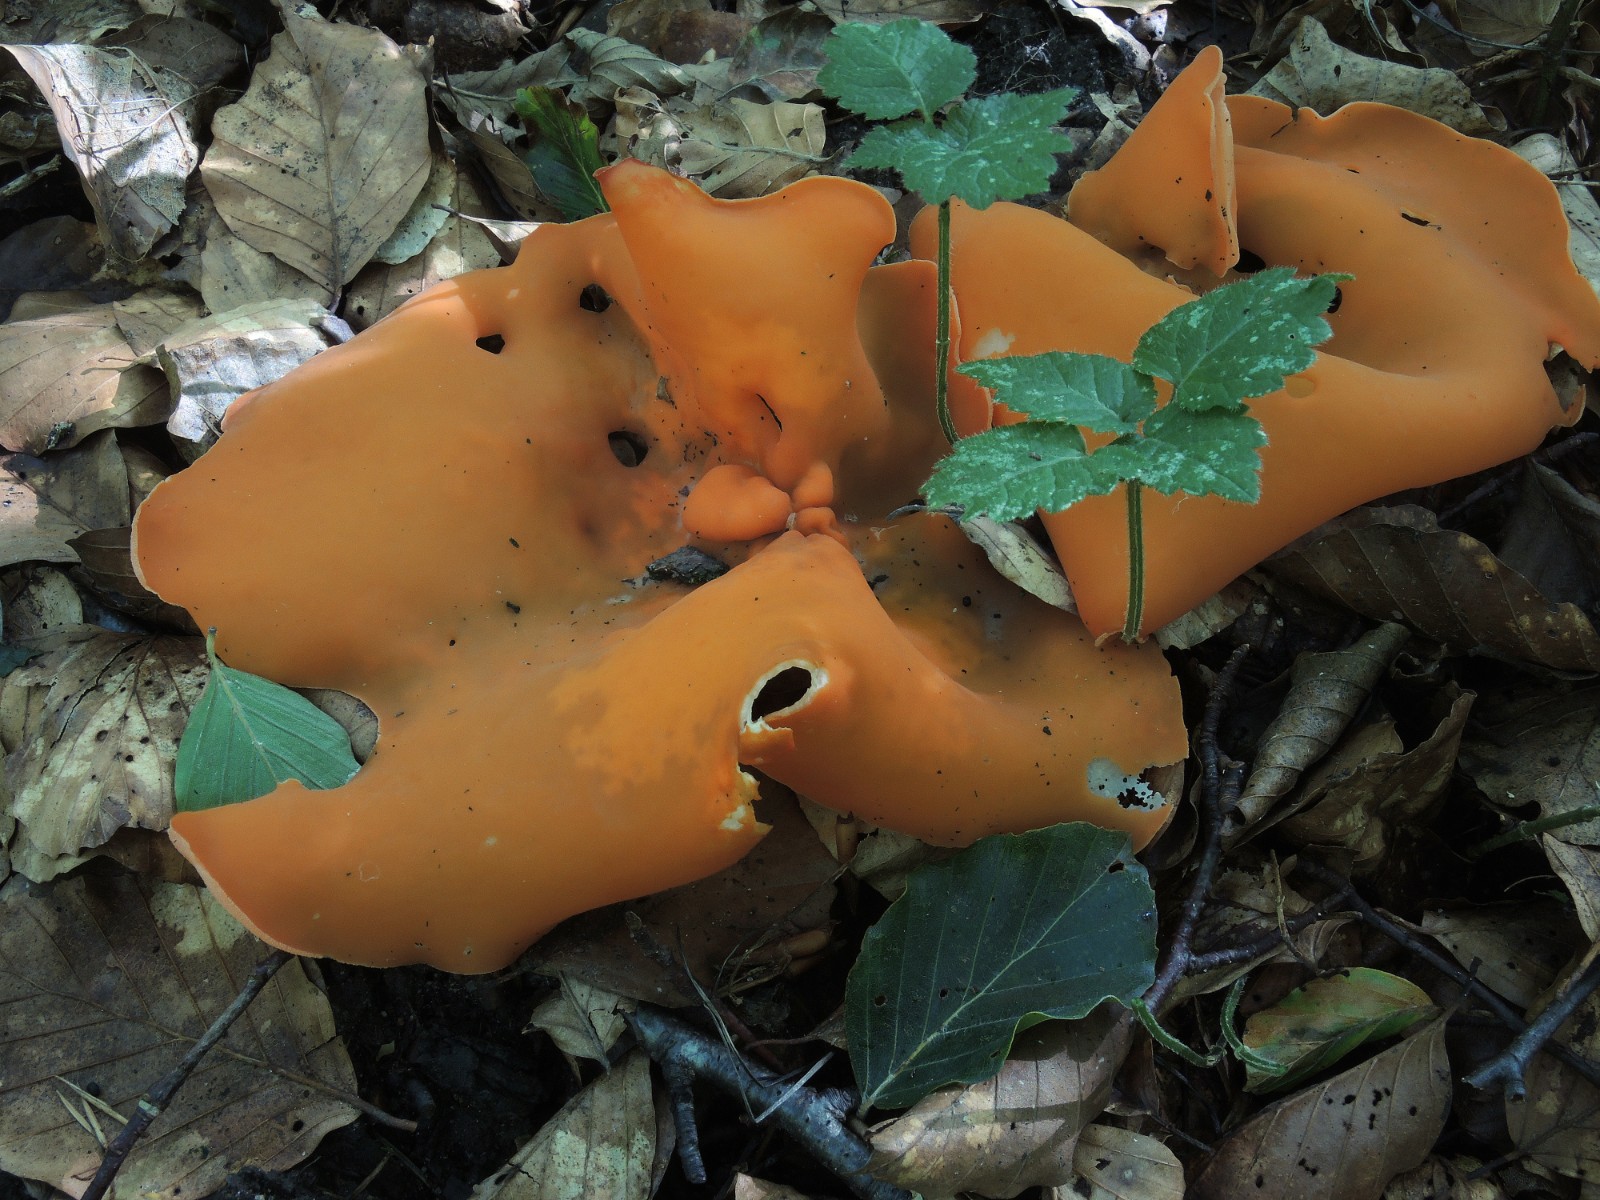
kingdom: Fungi
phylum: Ascomycota
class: Pezizomycetes
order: Pezizales
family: Pyronemataceae
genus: Aleuria
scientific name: Aleuria aurantia
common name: almindelig orangebæger
